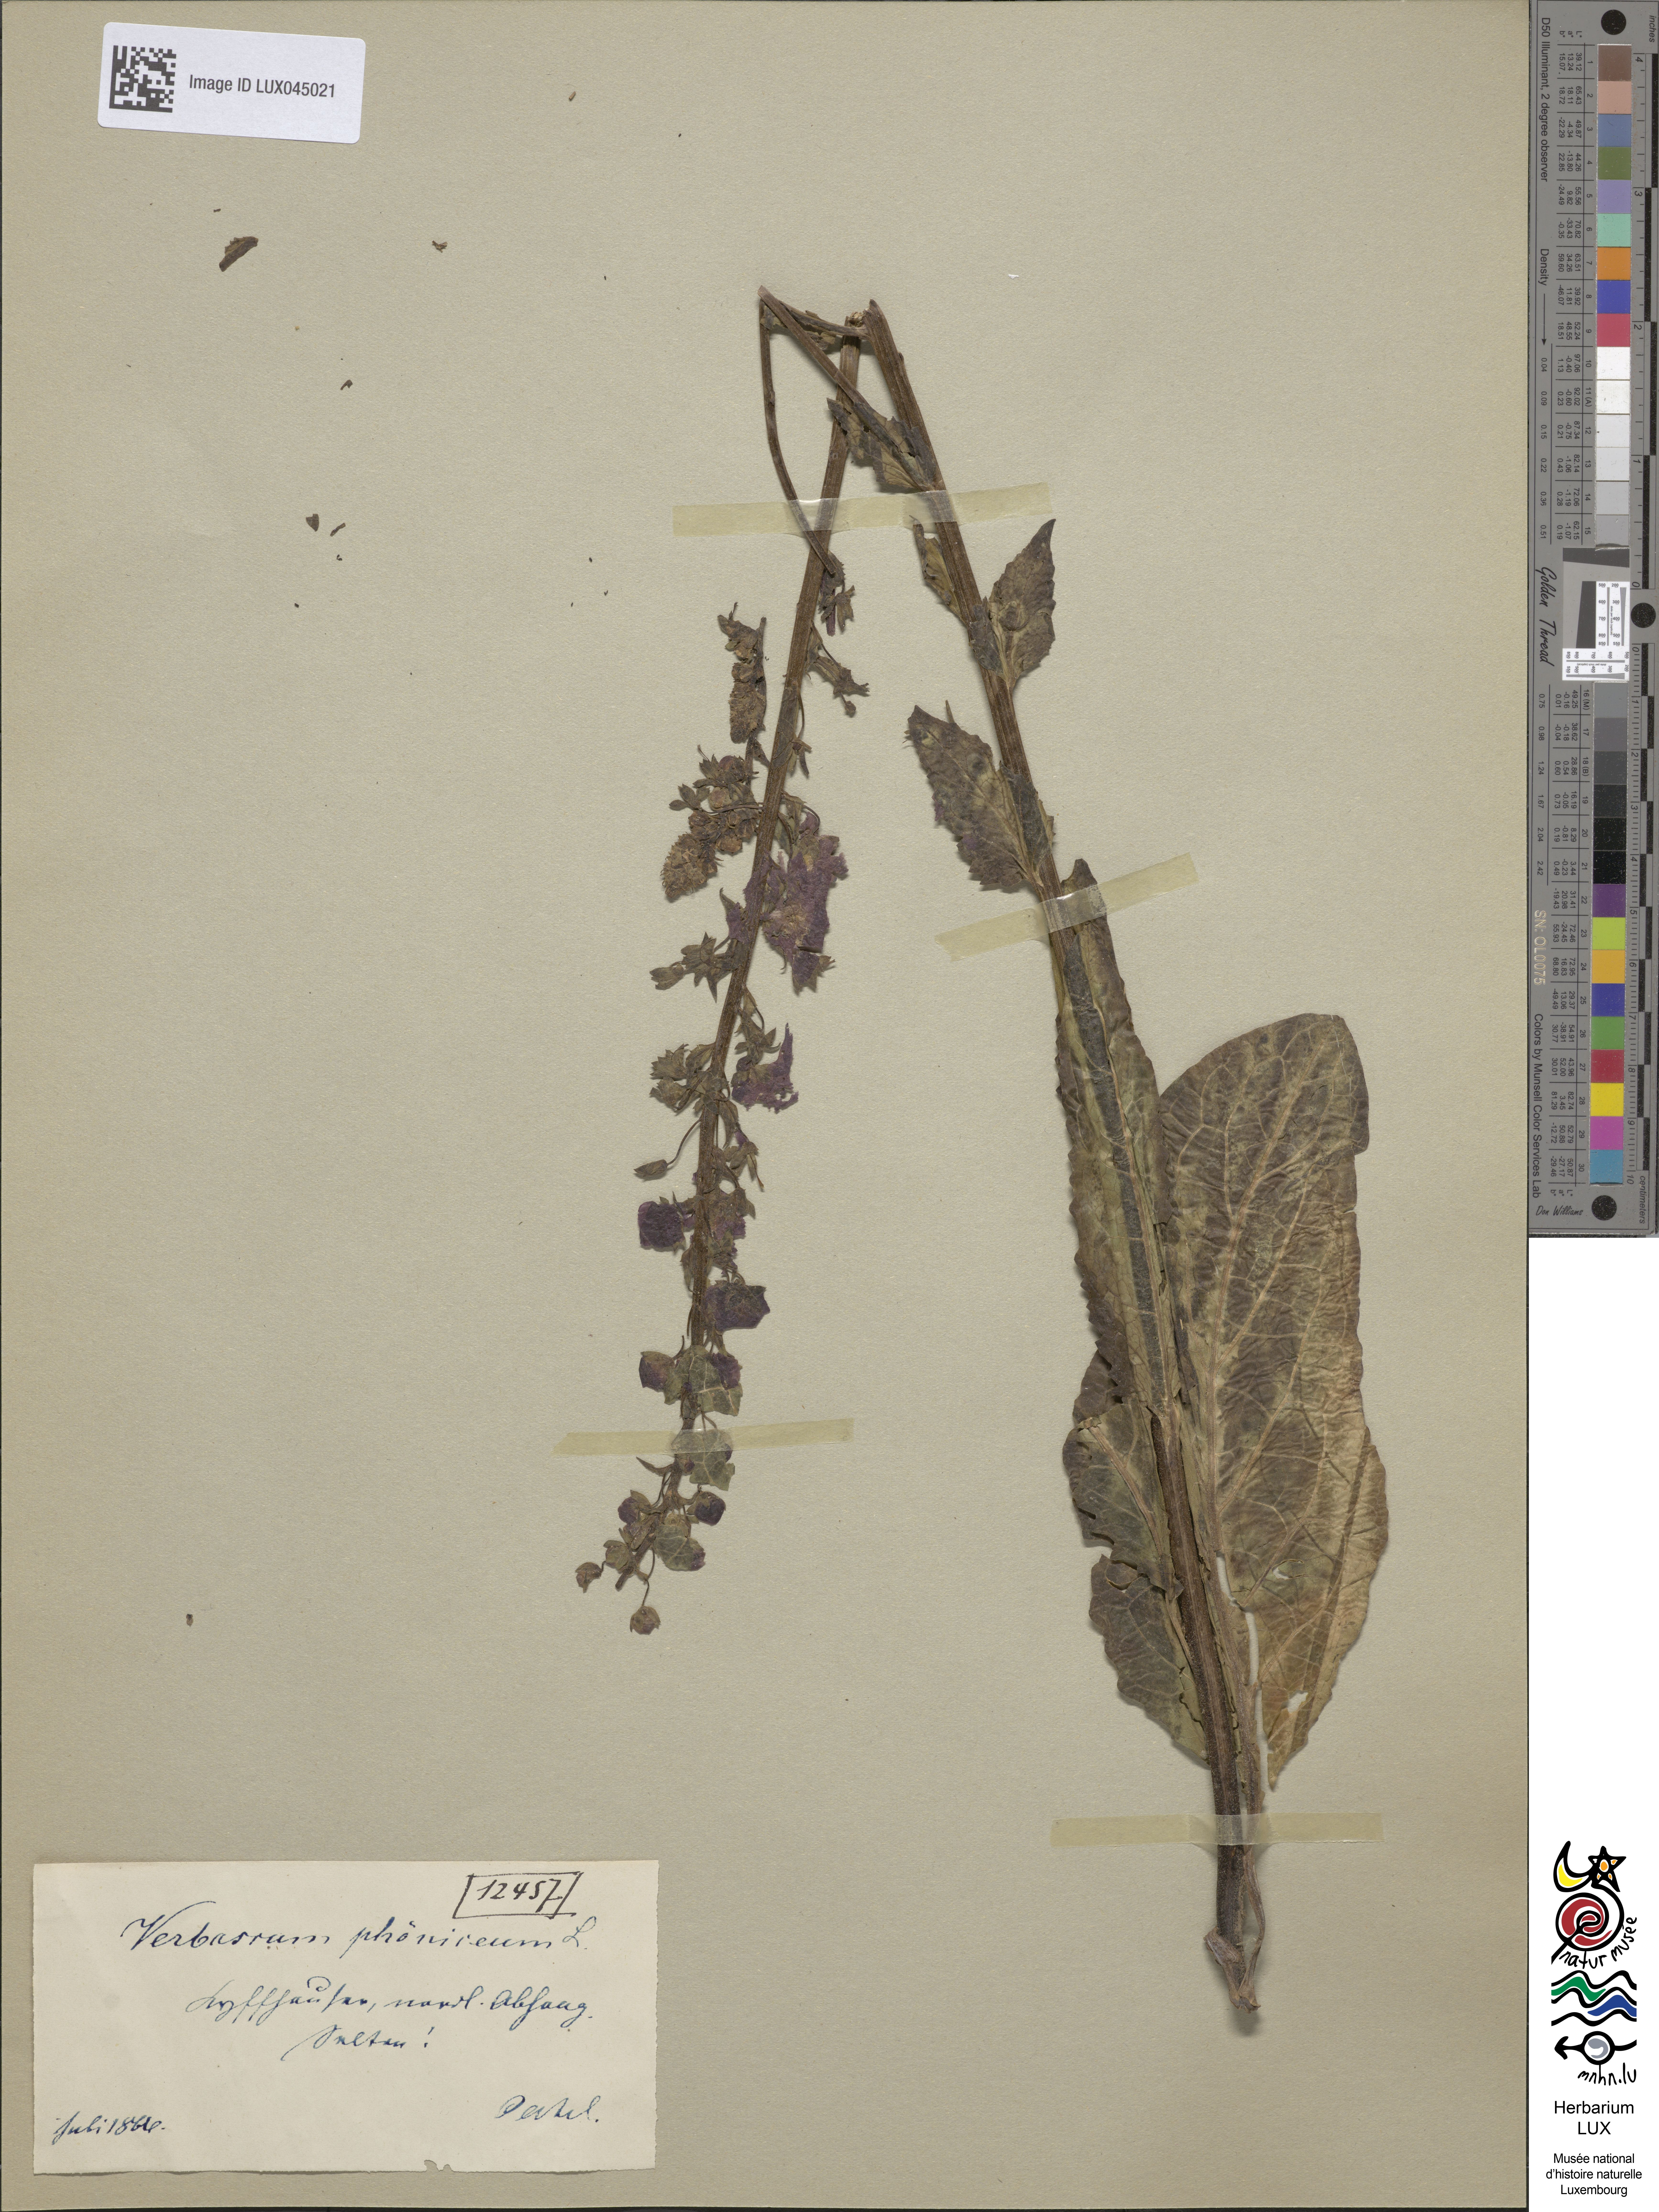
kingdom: Plantae
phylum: Tracheophyta
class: Magnoliopsida
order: Lamiales
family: Scrophulariaceae
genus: Verbascum
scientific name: Verbascum phoeniceum
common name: Purple mullein
